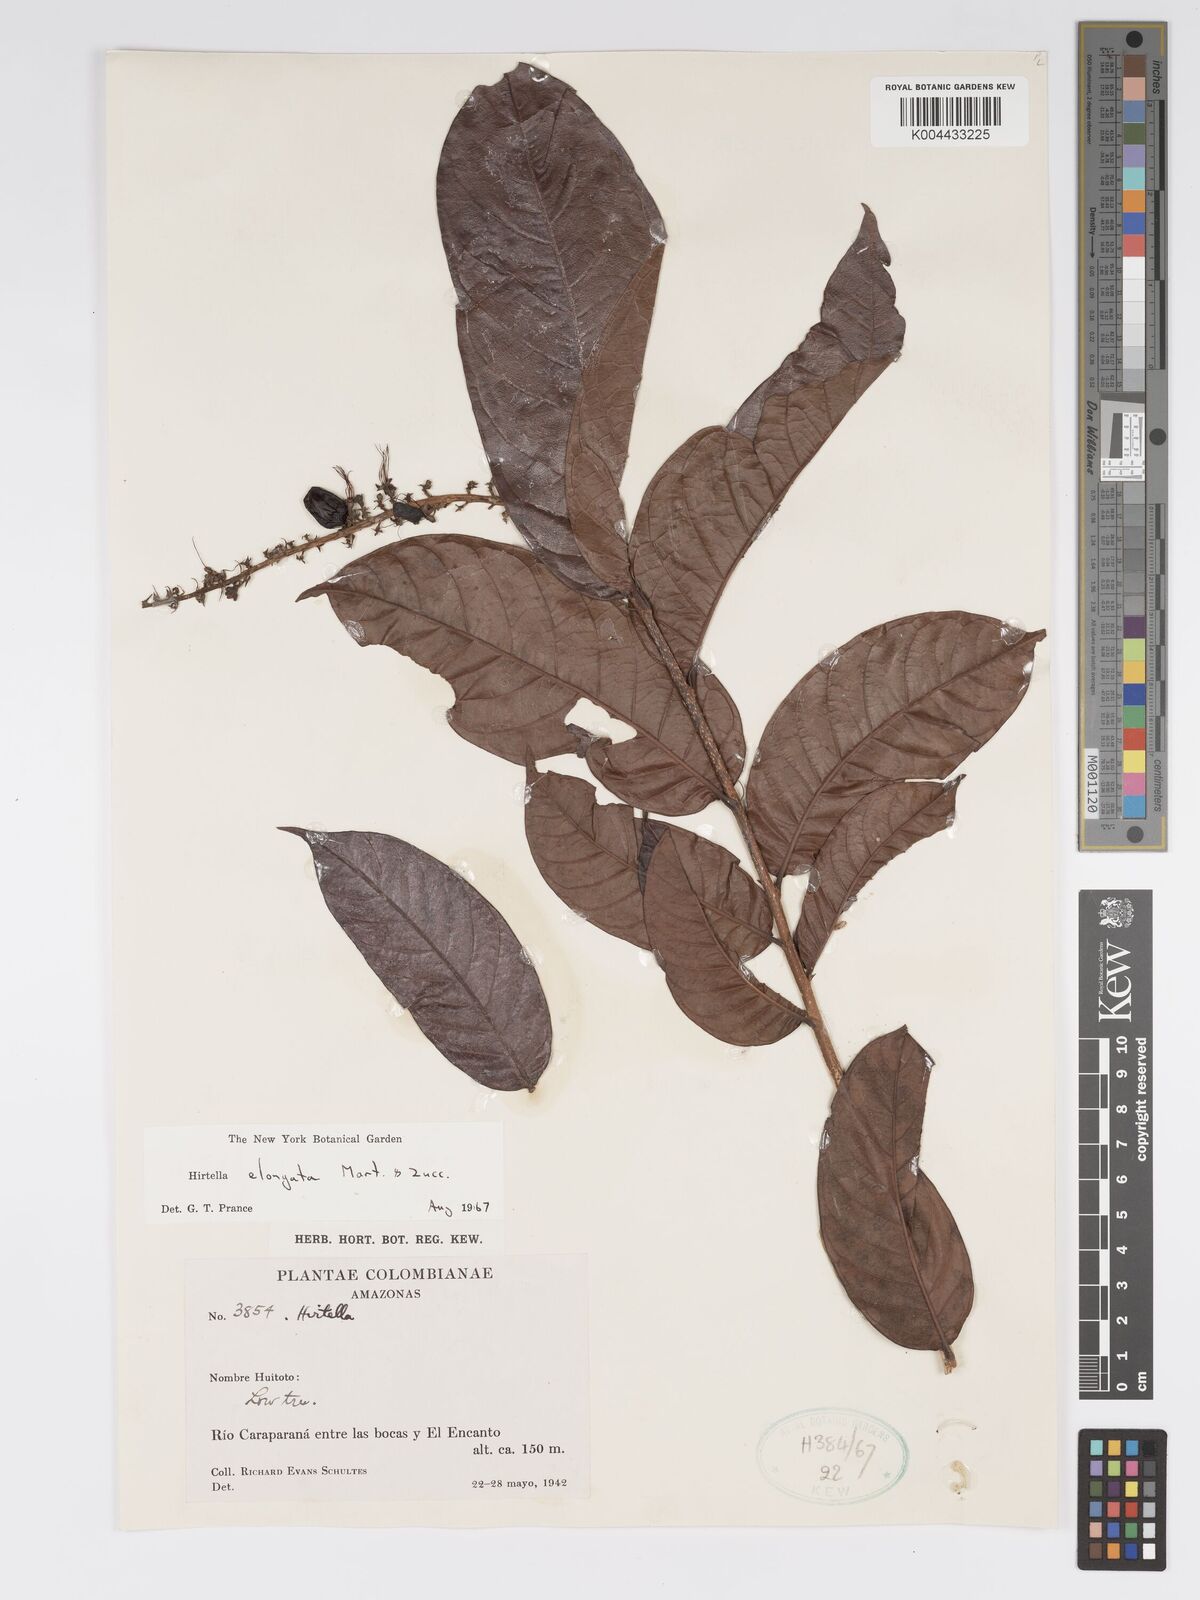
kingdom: Plantae
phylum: Tracheophyta
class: Magnoliopsida
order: Malpighiales
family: Chrysobalanaceae
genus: Hirtella
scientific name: Hirtella elongata
